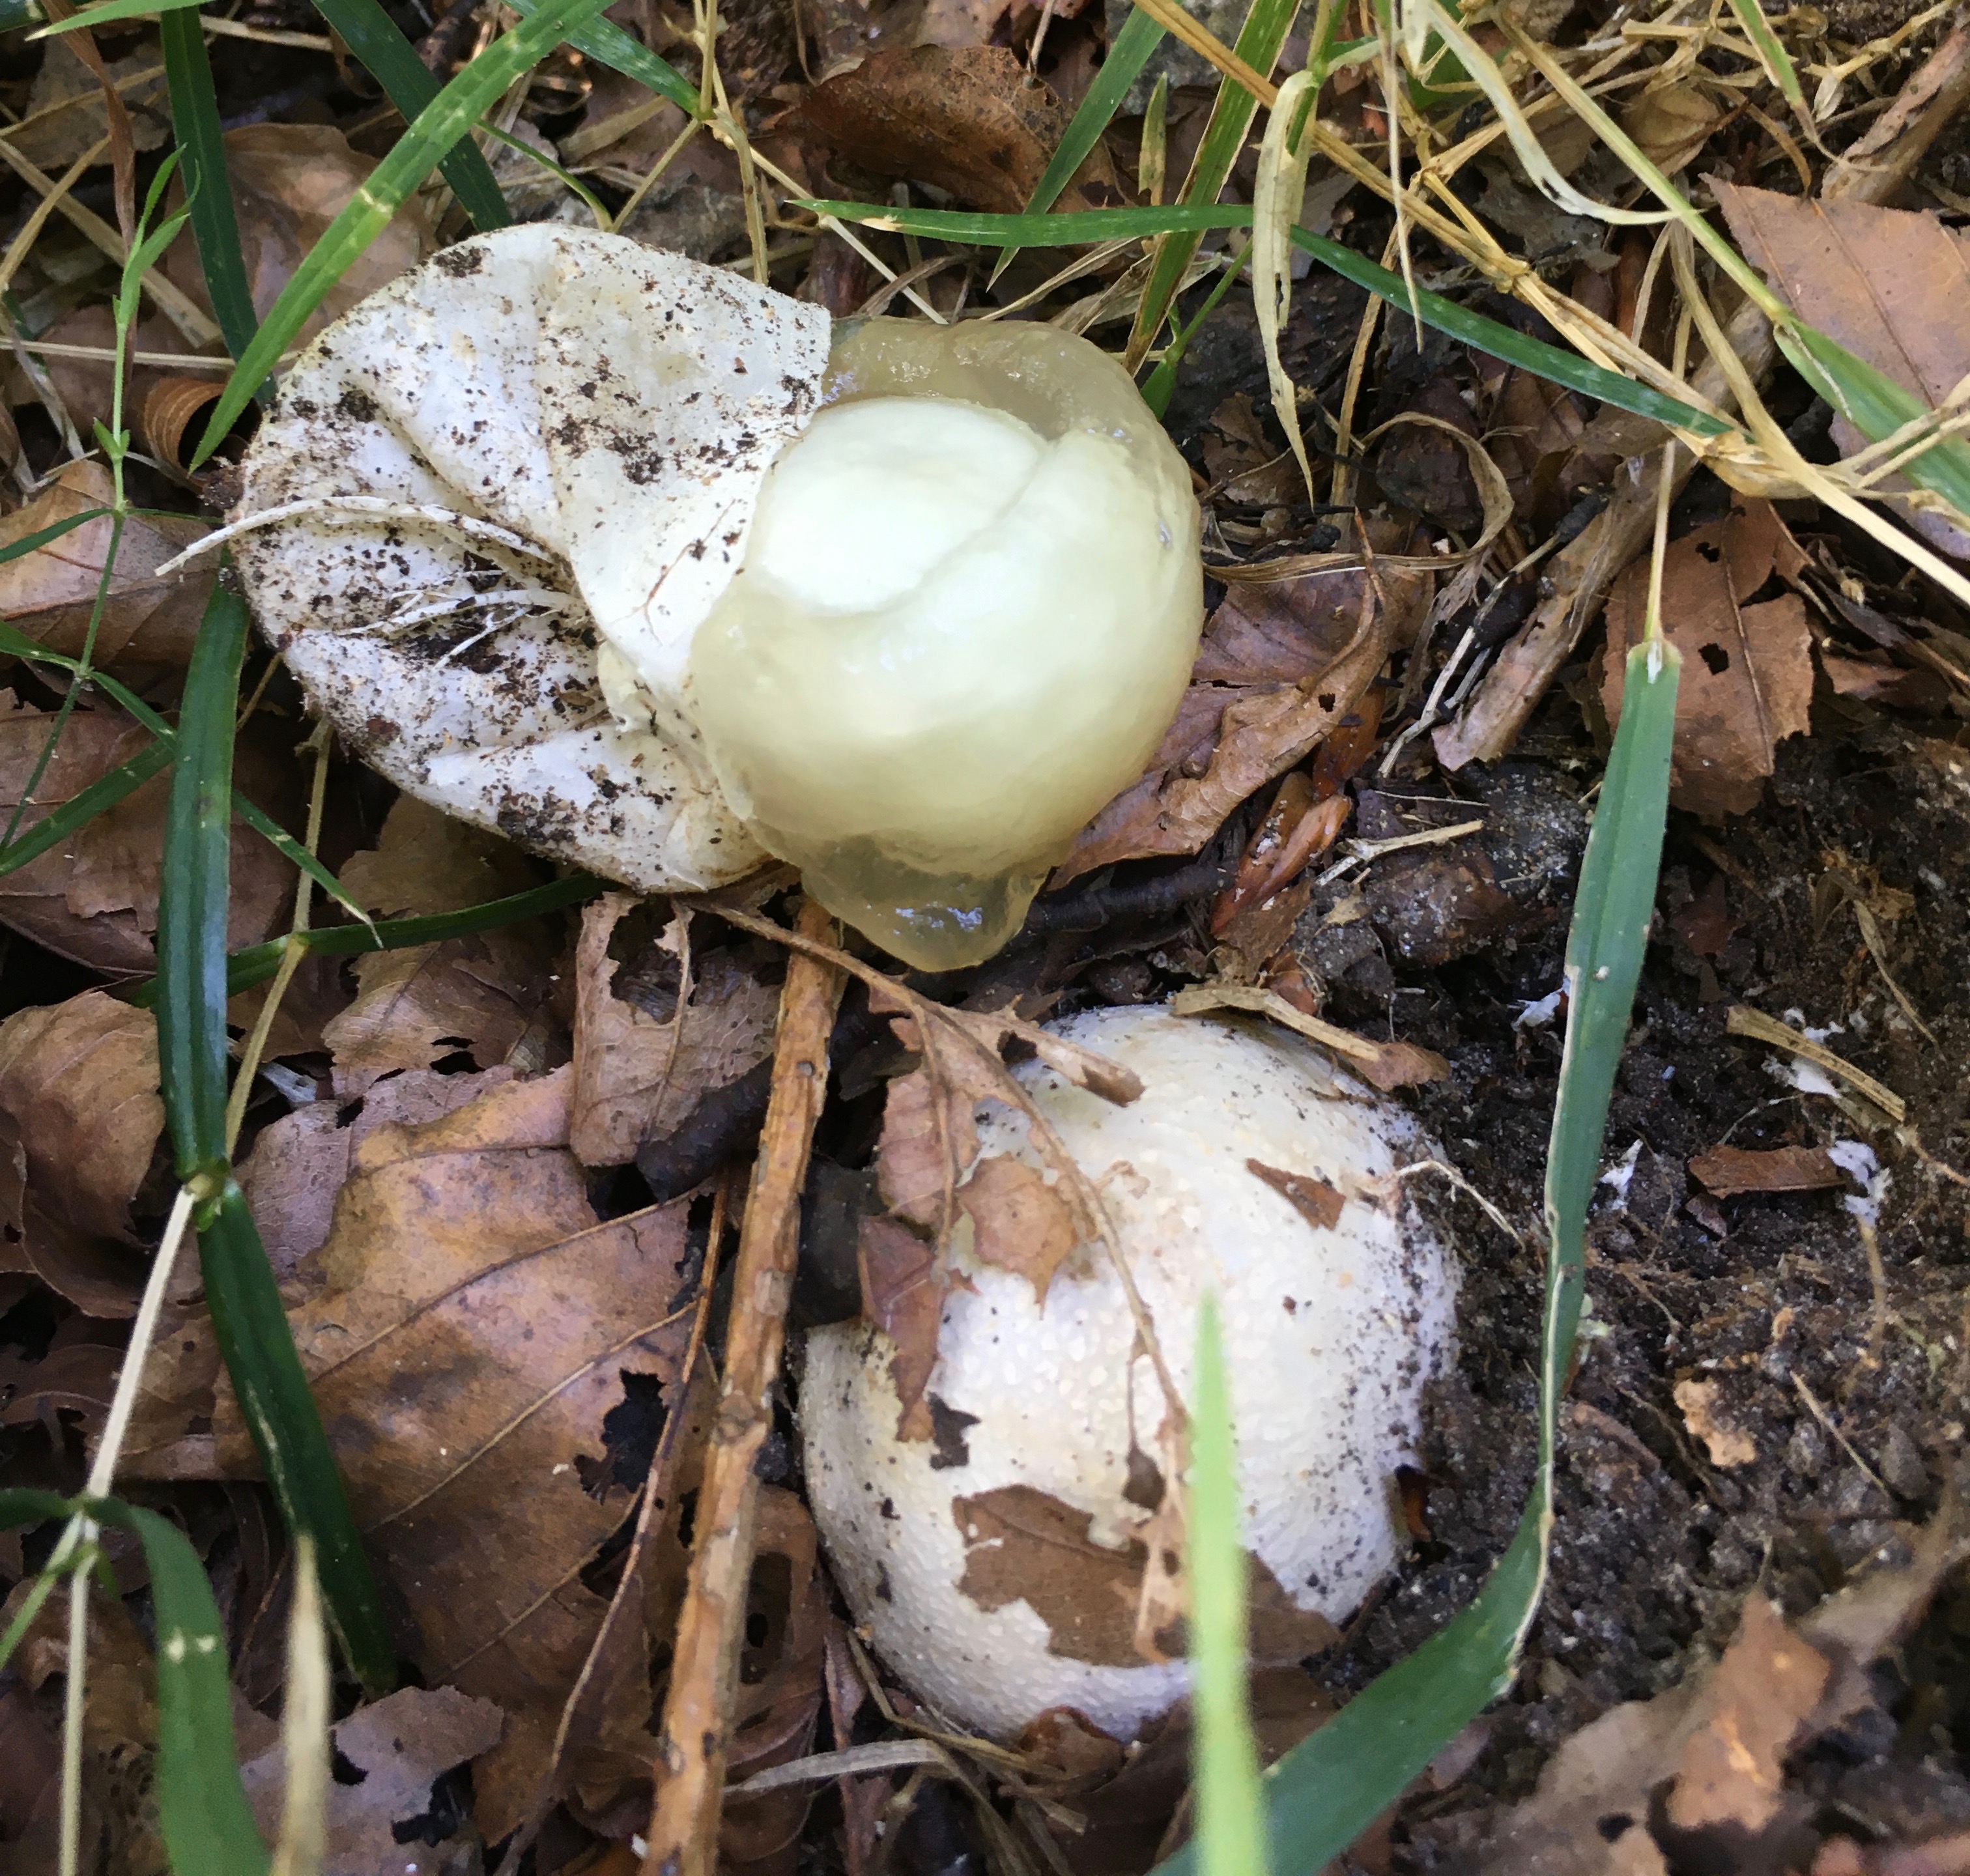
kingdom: Fungi
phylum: Basidiomycota
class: Agaricomycetes
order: Phallales
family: Phallaceae
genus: Phallus
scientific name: Phallus impudicus
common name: almindelig stinksvamp
